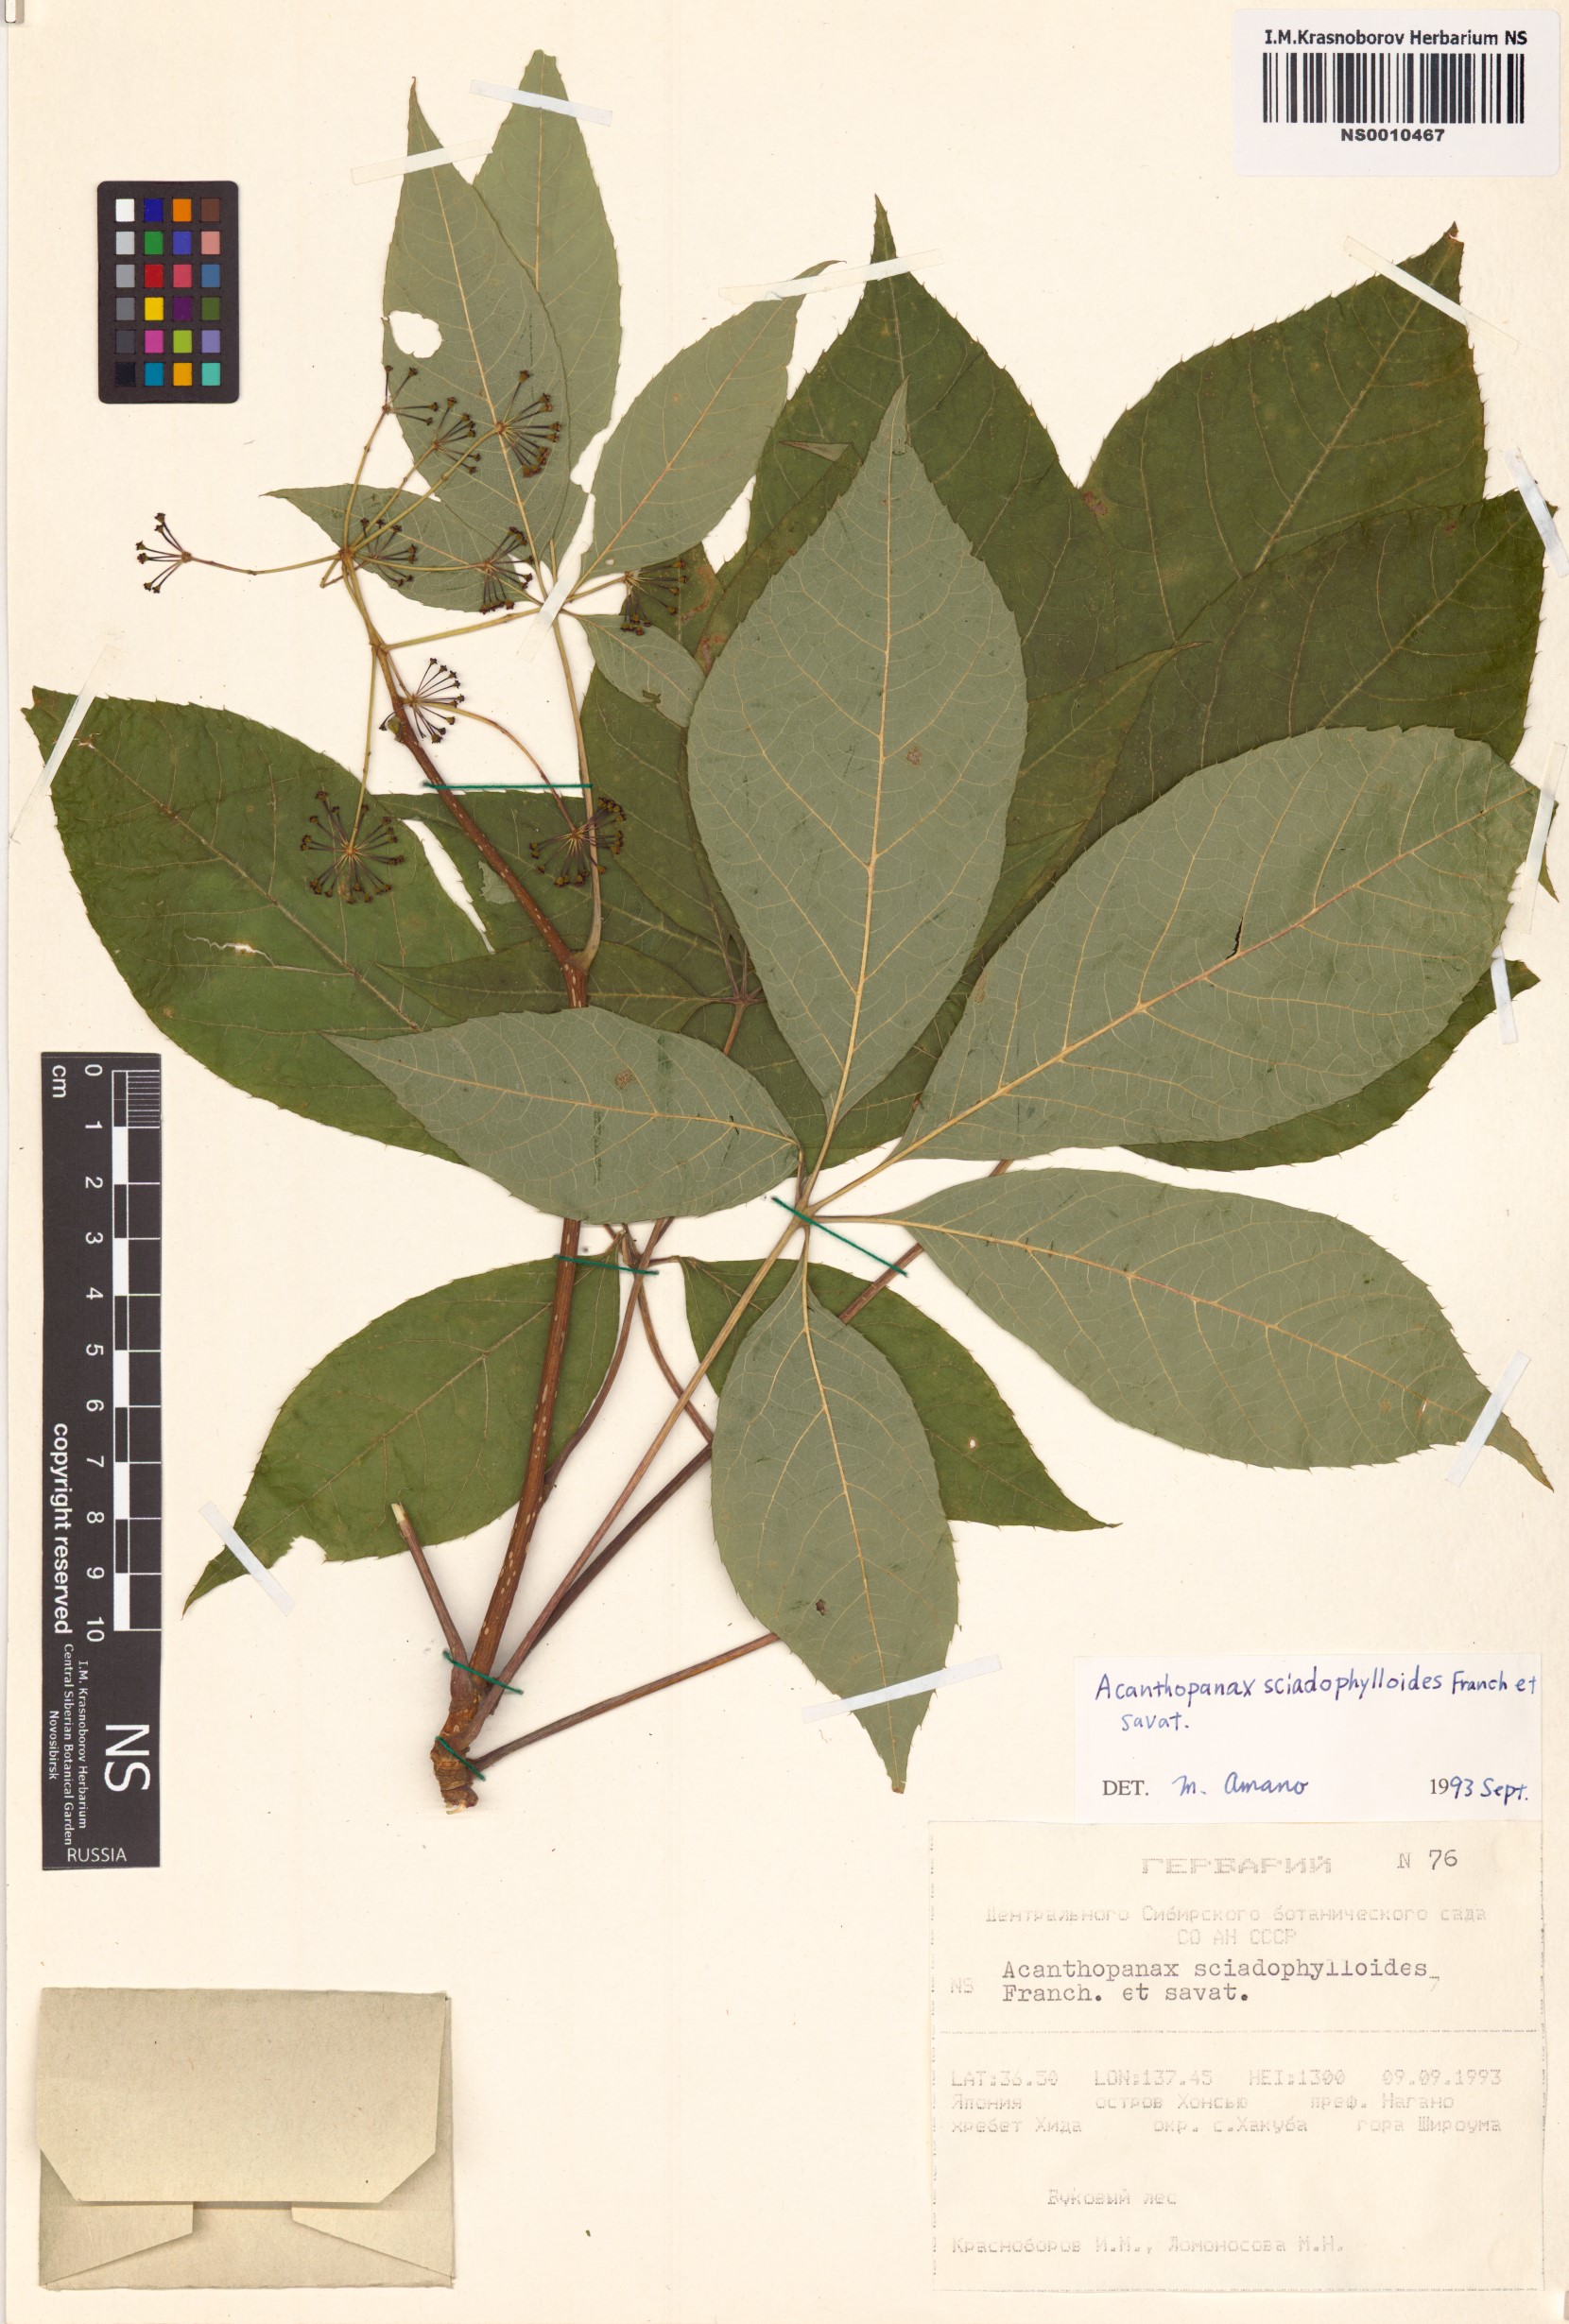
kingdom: Plantae
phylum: Tracheophyta
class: Magnoliopsida
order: Apiales
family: Araliaceae
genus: Chengiopanax
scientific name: Chengiopanax sciadophylloides
